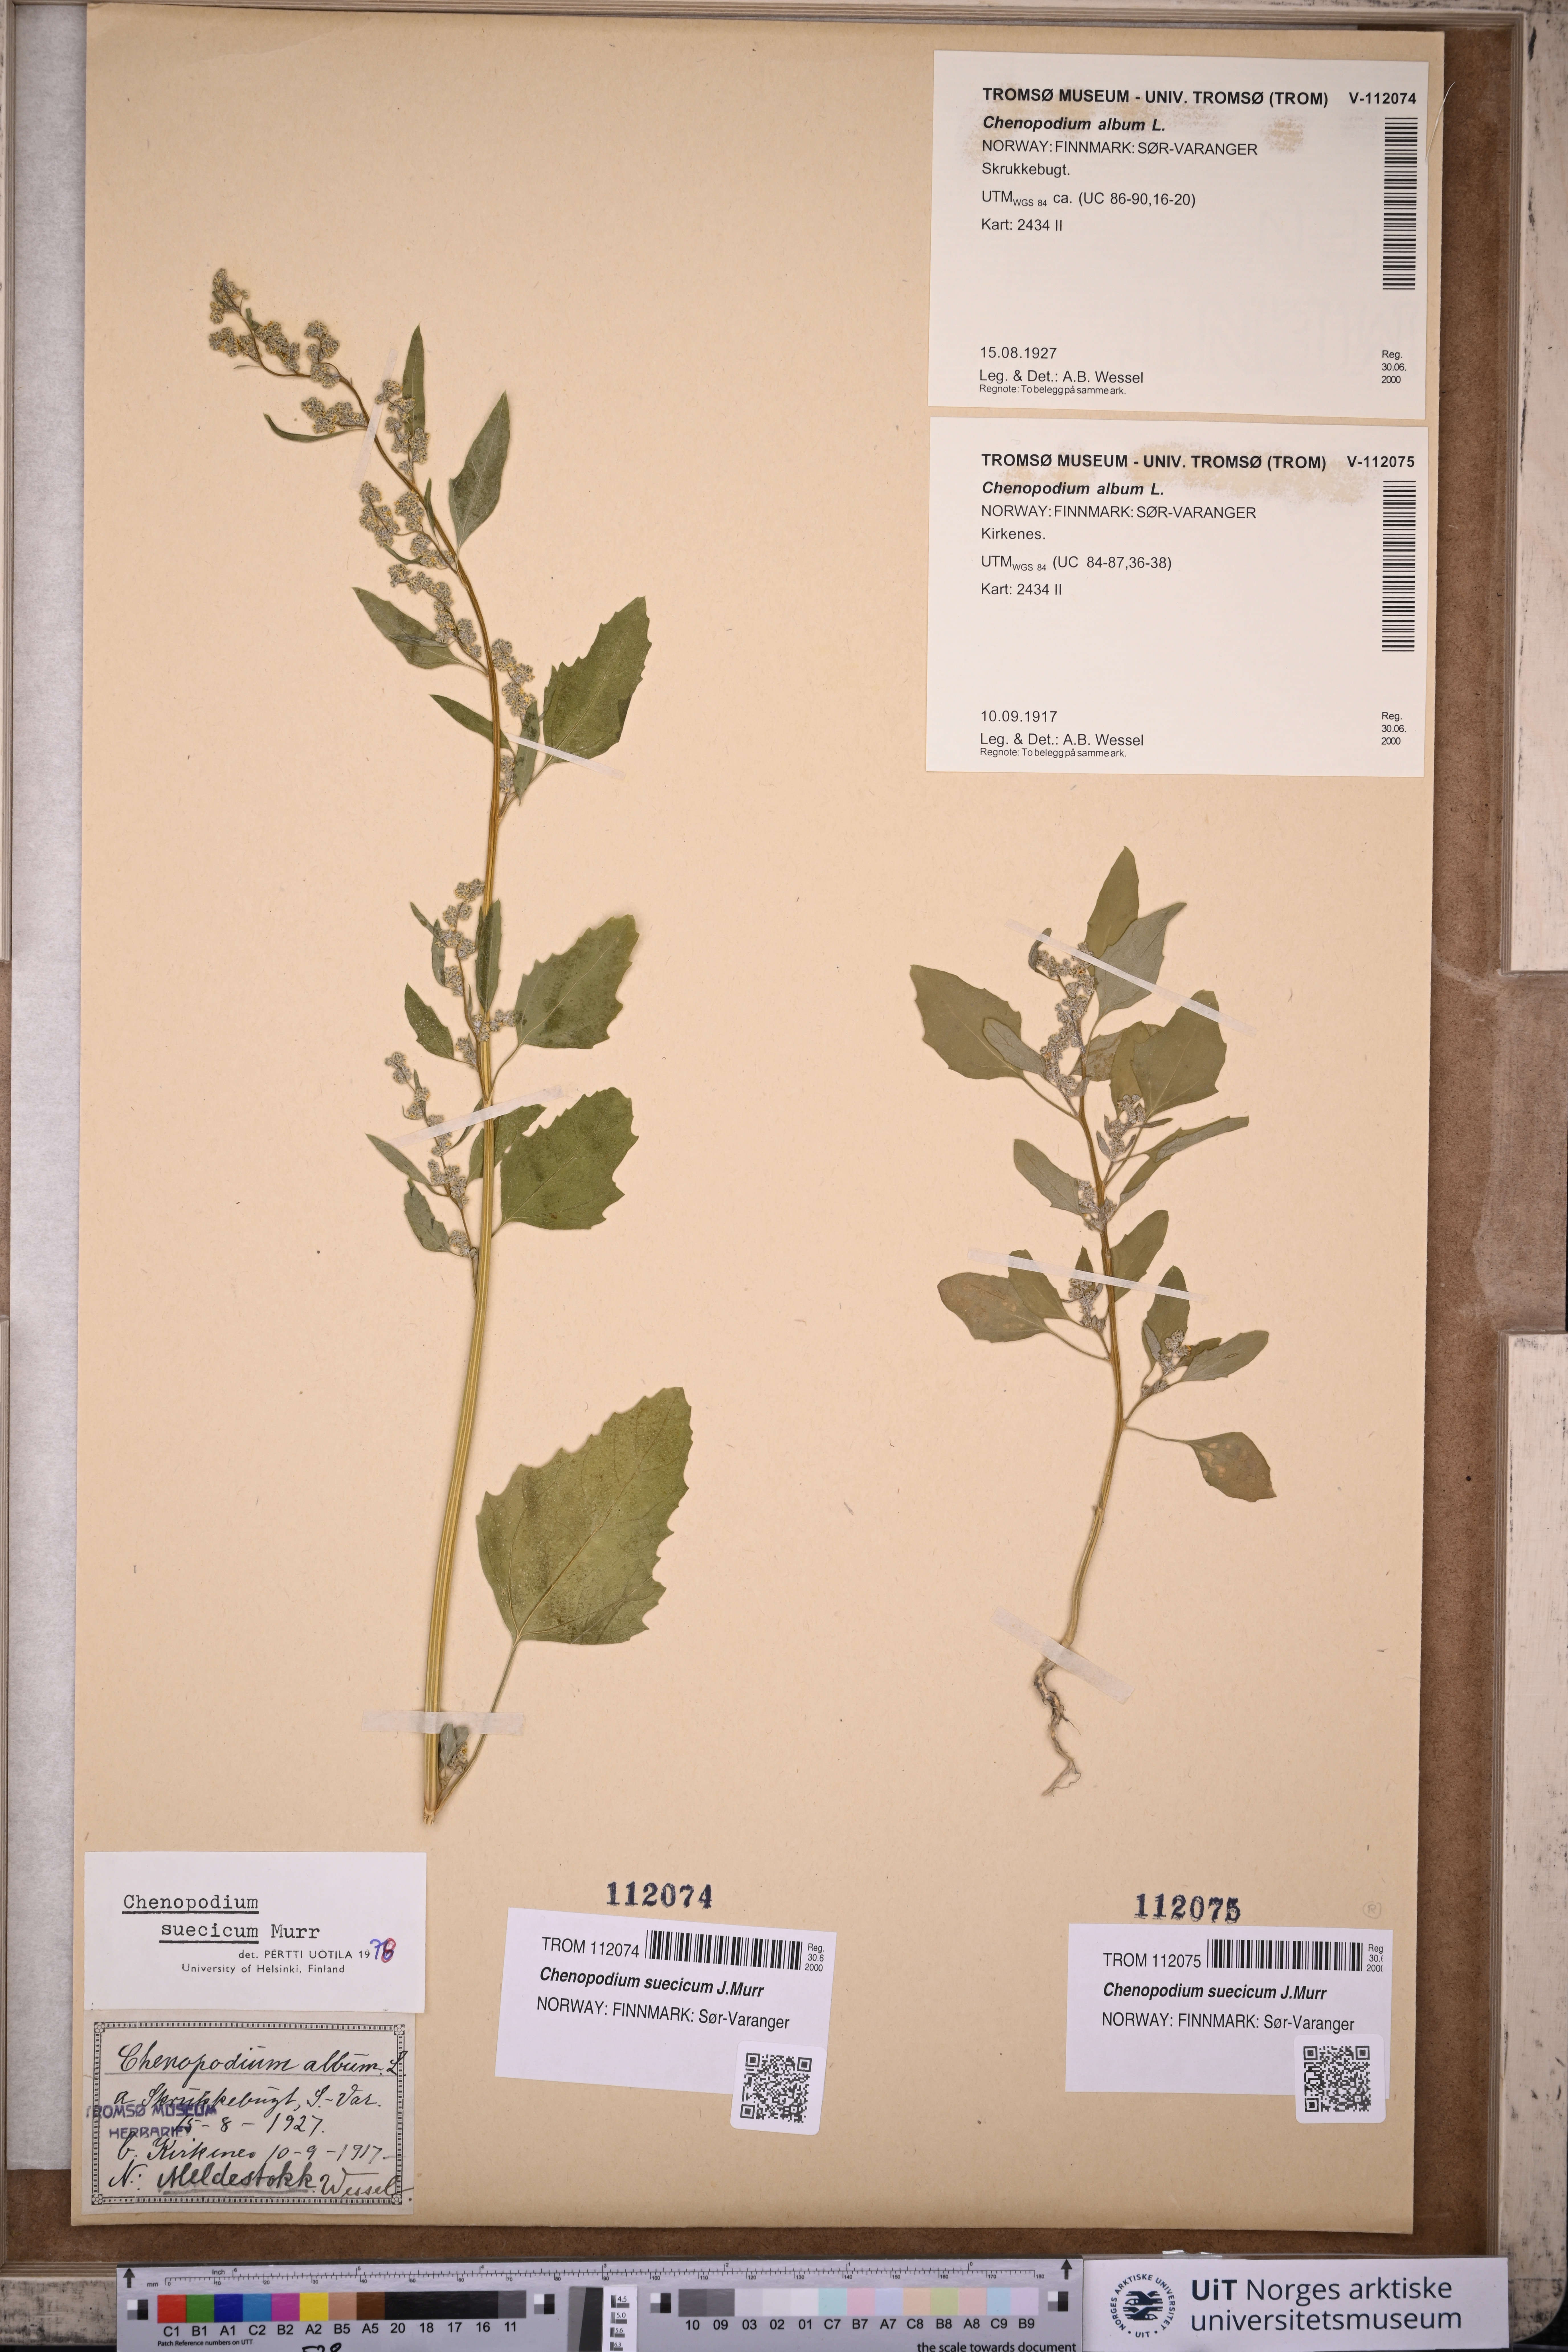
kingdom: Plantae
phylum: Tracheophyta
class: Magnoliopsida
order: Caryophyllales
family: Amaranthaceae
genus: Chenopodium
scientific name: Chenopodium suecicum
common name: Swedish goosefoot
